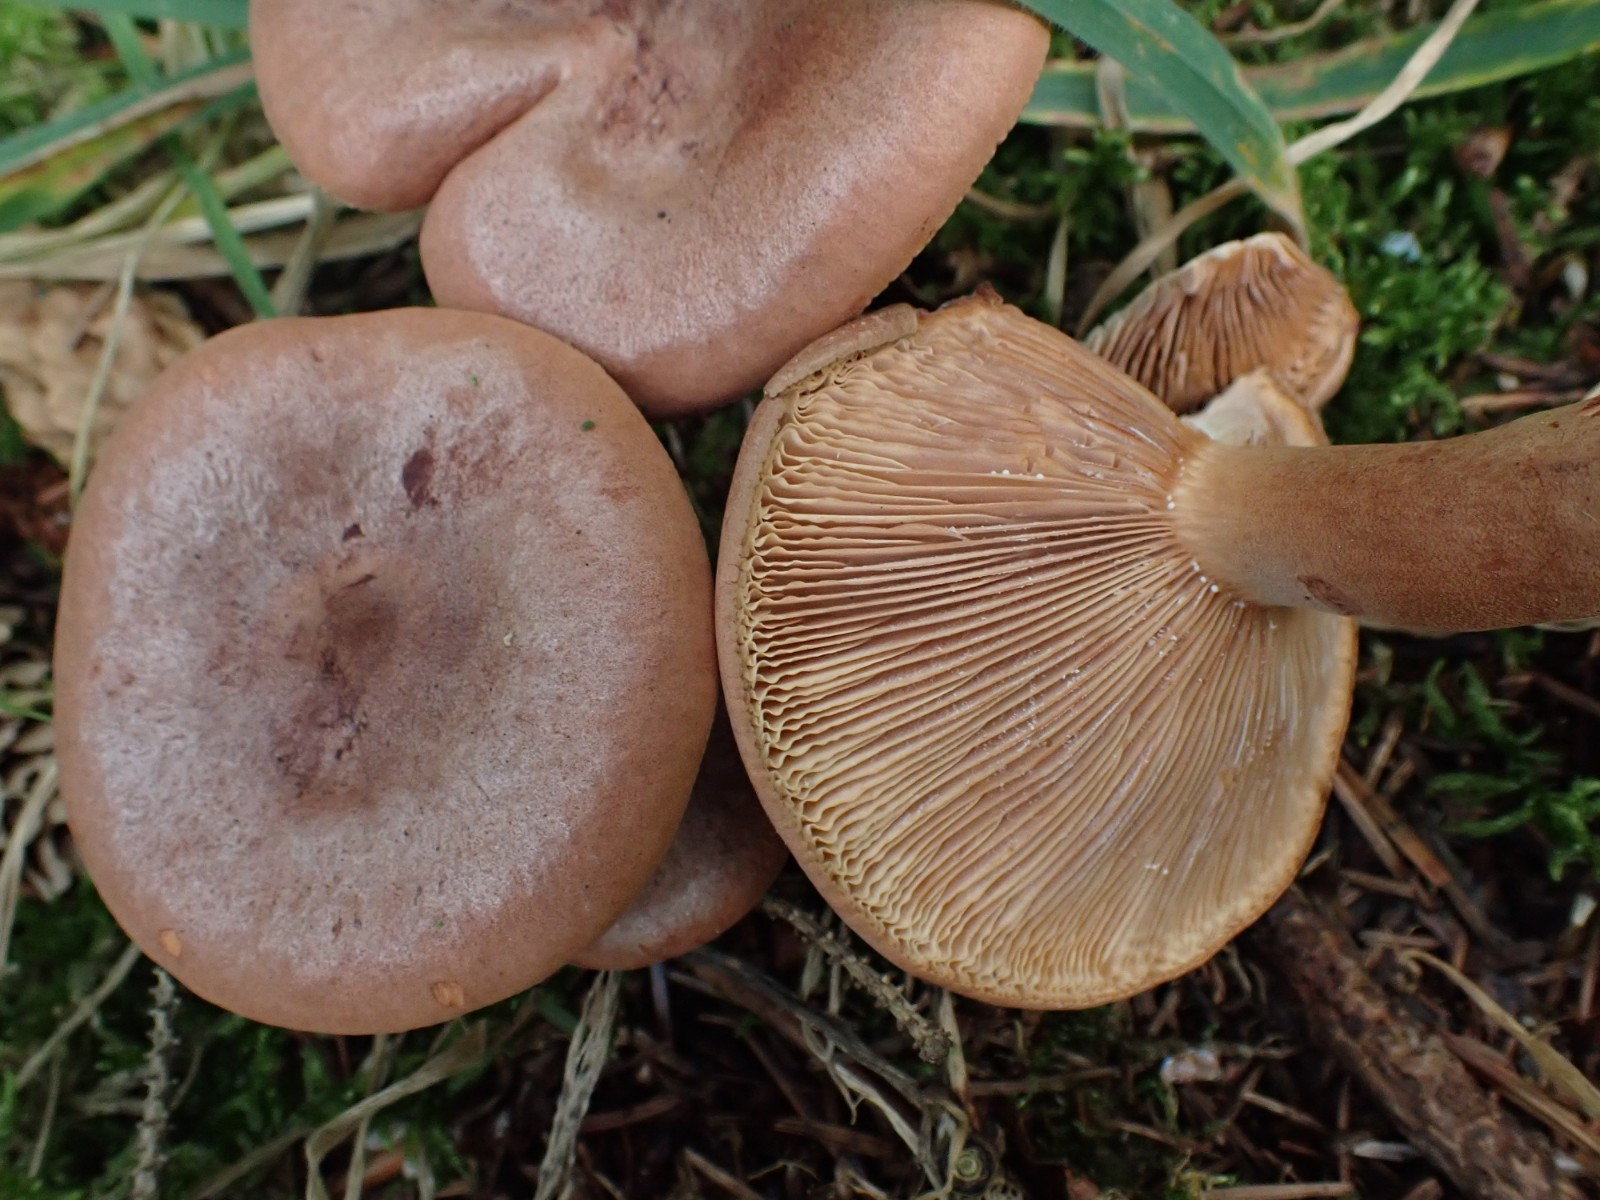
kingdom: Fungi
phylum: Basidiomycota
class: Agaricomycetes
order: Russulales
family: Russulaceae
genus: Lactarius
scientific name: Lactarius rufus
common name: rødbrun mælkehat
